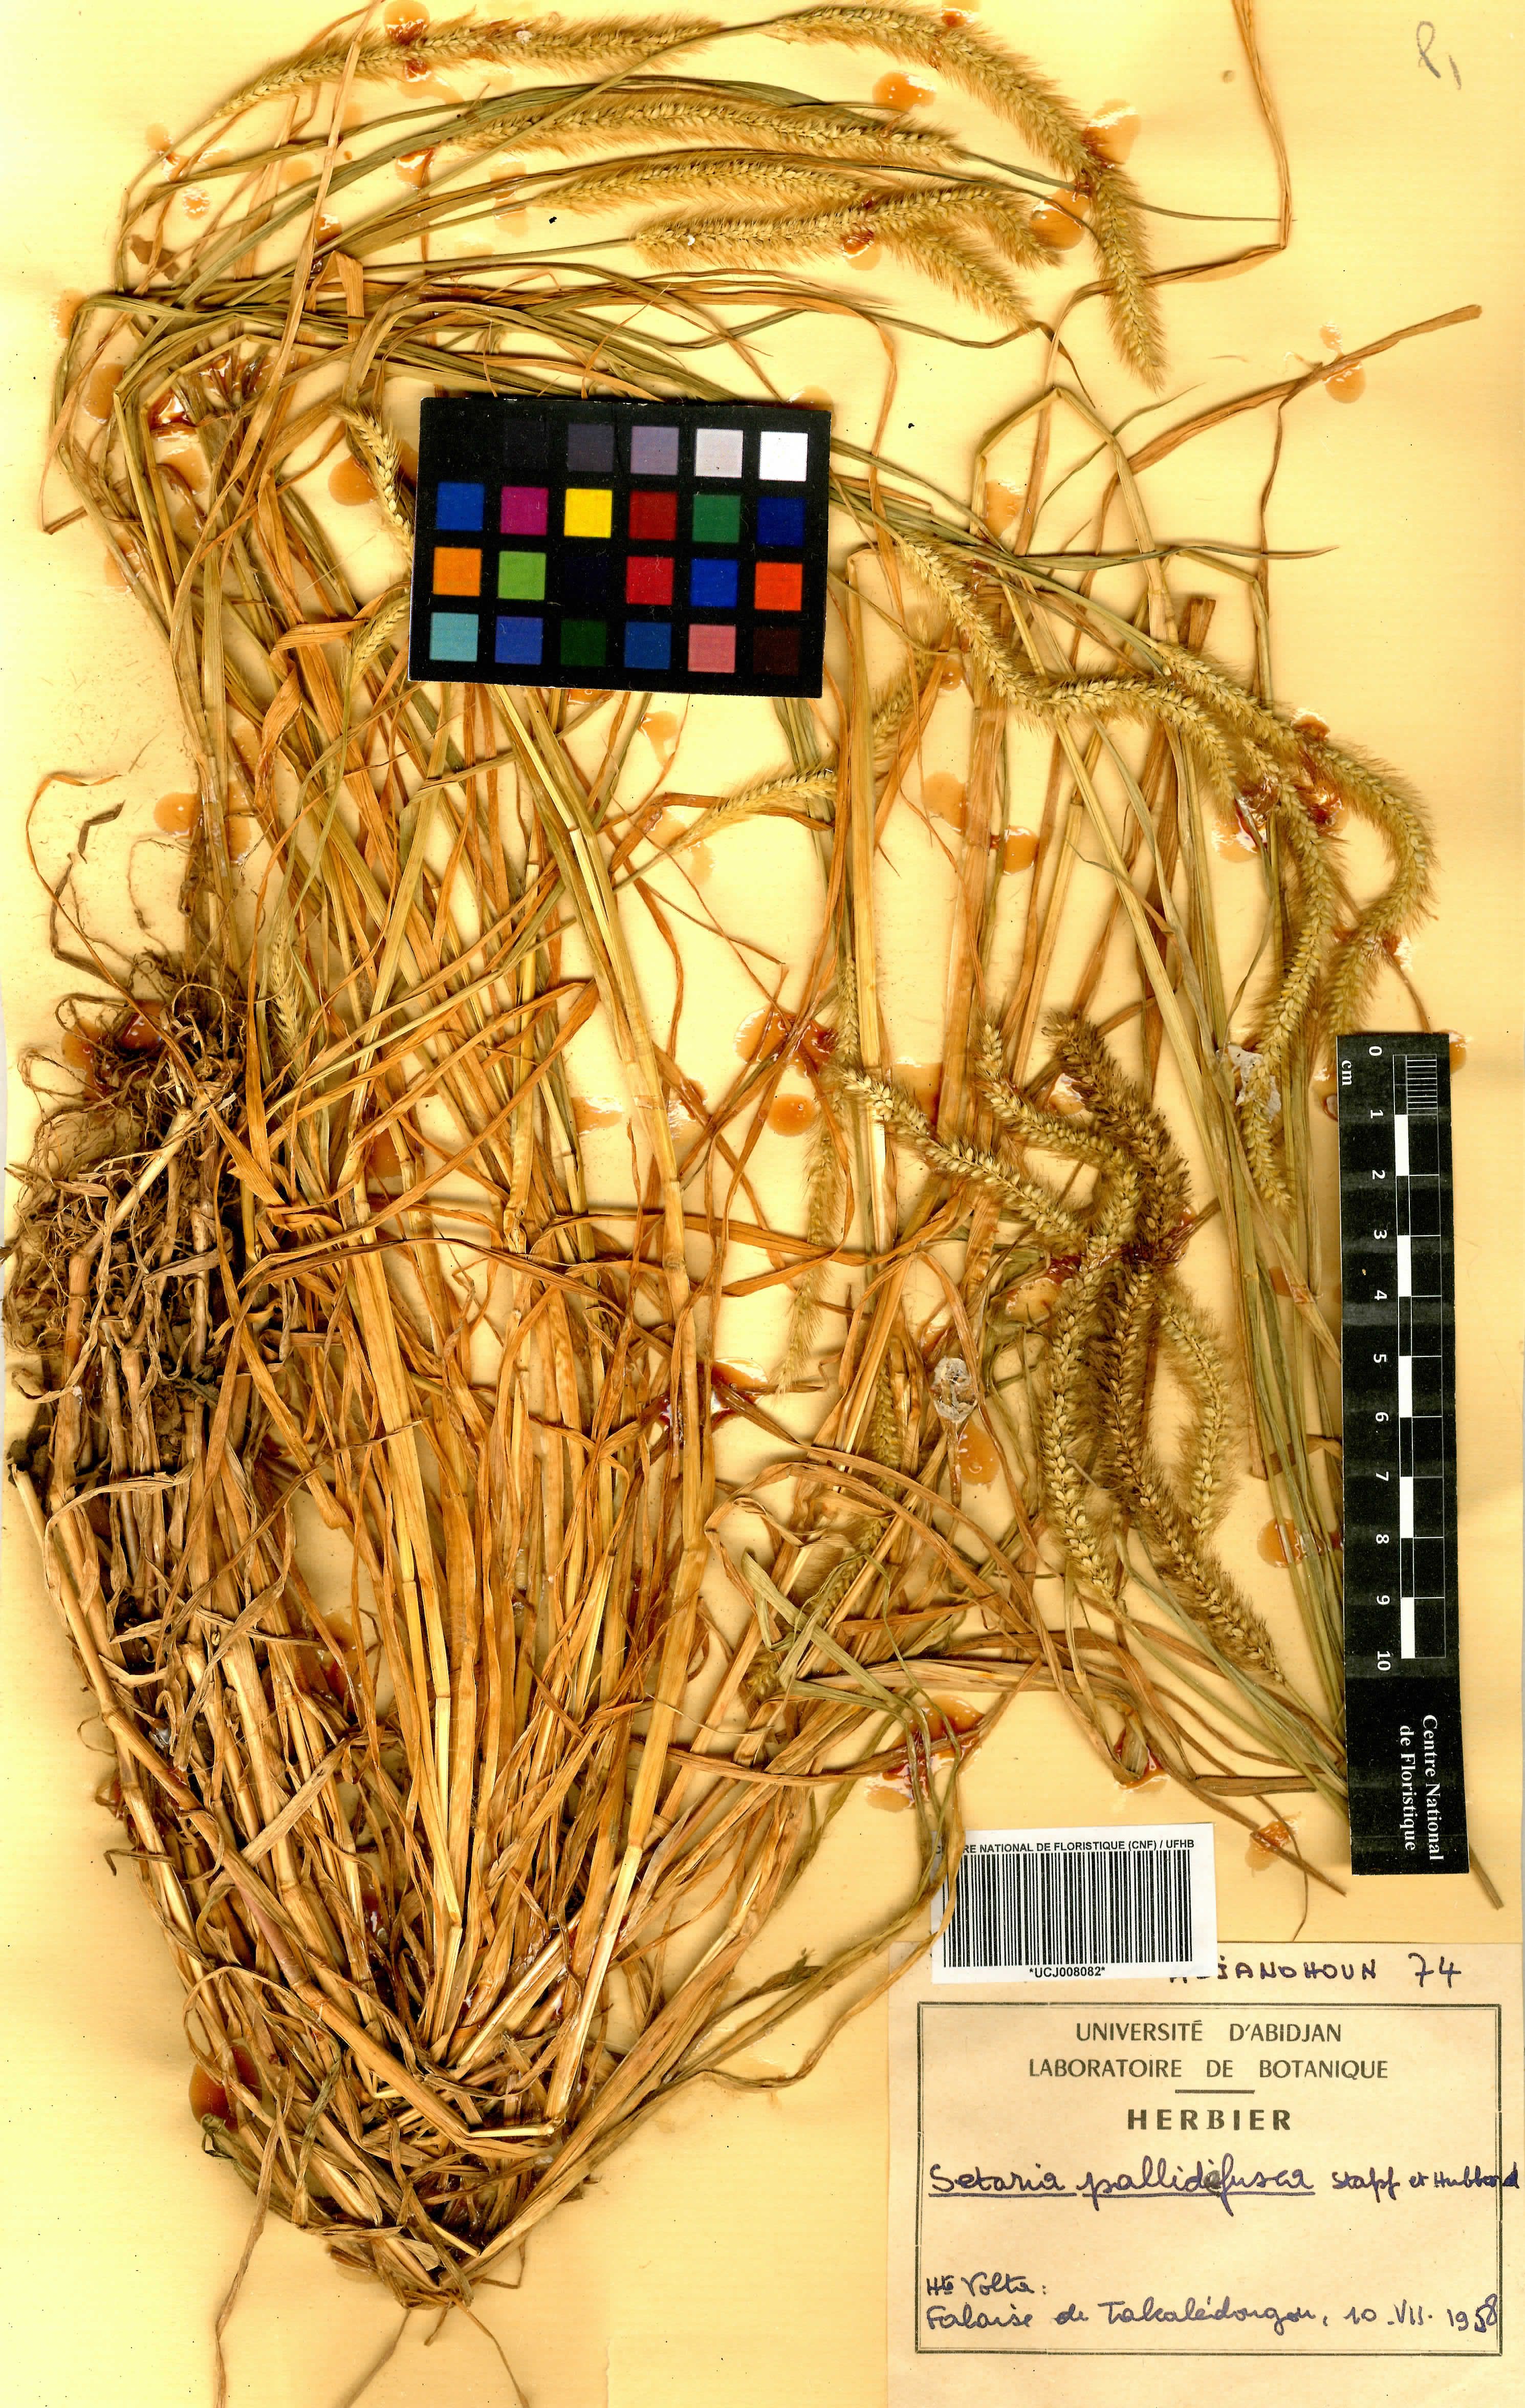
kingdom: Plantae
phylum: Tracheophyta
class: Liliopsida
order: Poales
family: Poaceae
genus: Setaria
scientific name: Setaria italica
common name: Foxtail bristle-grass
